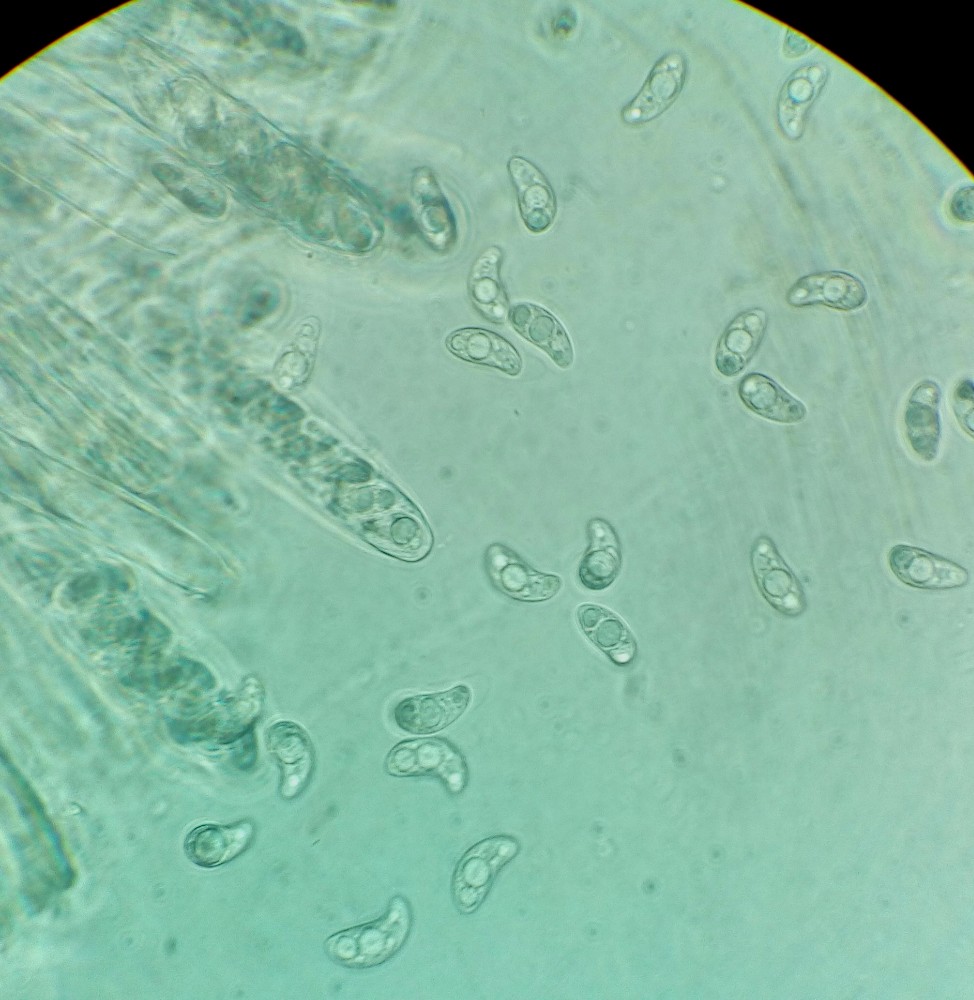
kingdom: Fungi
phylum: Ascomycota
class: Leotiomycetes
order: Helotiales
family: Rutstroemiaceae
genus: Rutstroemia
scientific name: Rutstroemia sydowiana
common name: egeblads-brunskive
